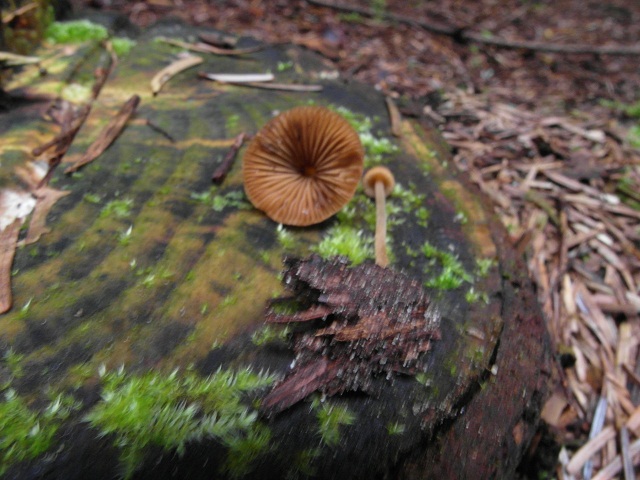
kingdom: Fungi
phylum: Basidiomycota
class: Agaricomycetes
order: Agaricales
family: Bolbitiaceae
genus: Conocybe
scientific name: Conocybe subpubescens
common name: krat-keglehat
